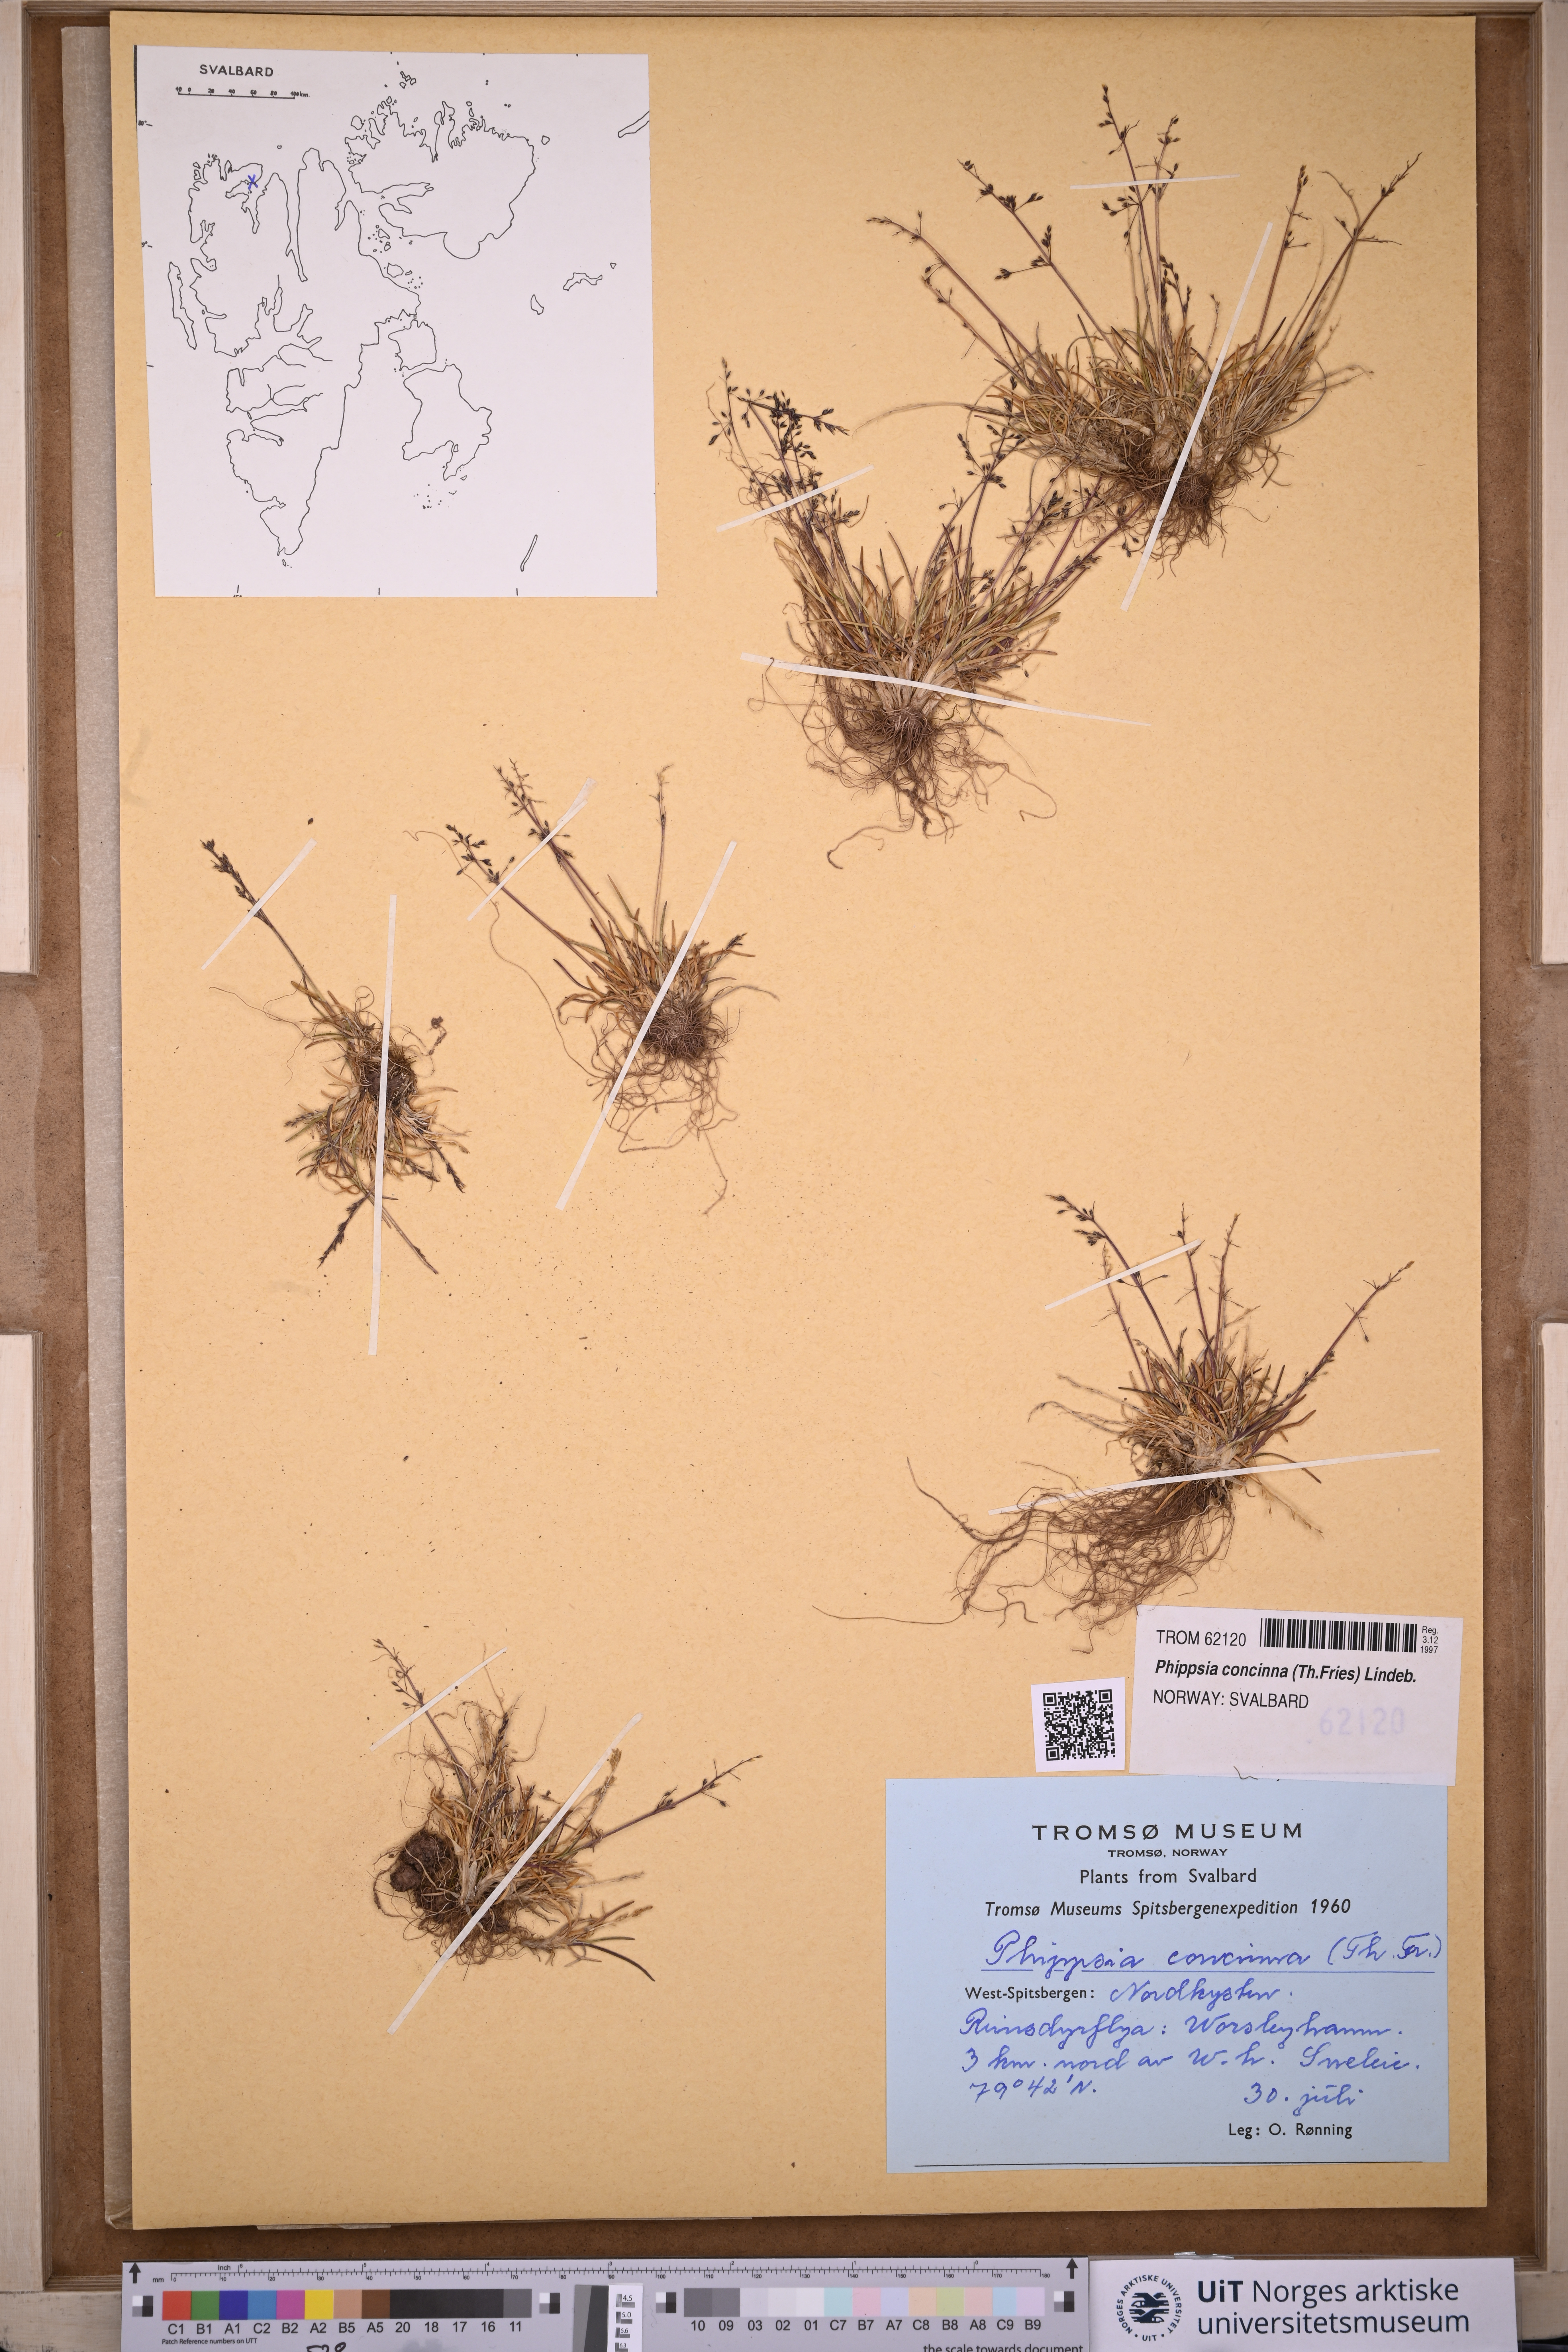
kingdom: Plantae
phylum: Tracheophyta
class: Liliopsida
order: Poales
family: Poaceae
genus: Phippsia
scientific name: Phippsia concinna
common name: Snowgrass
